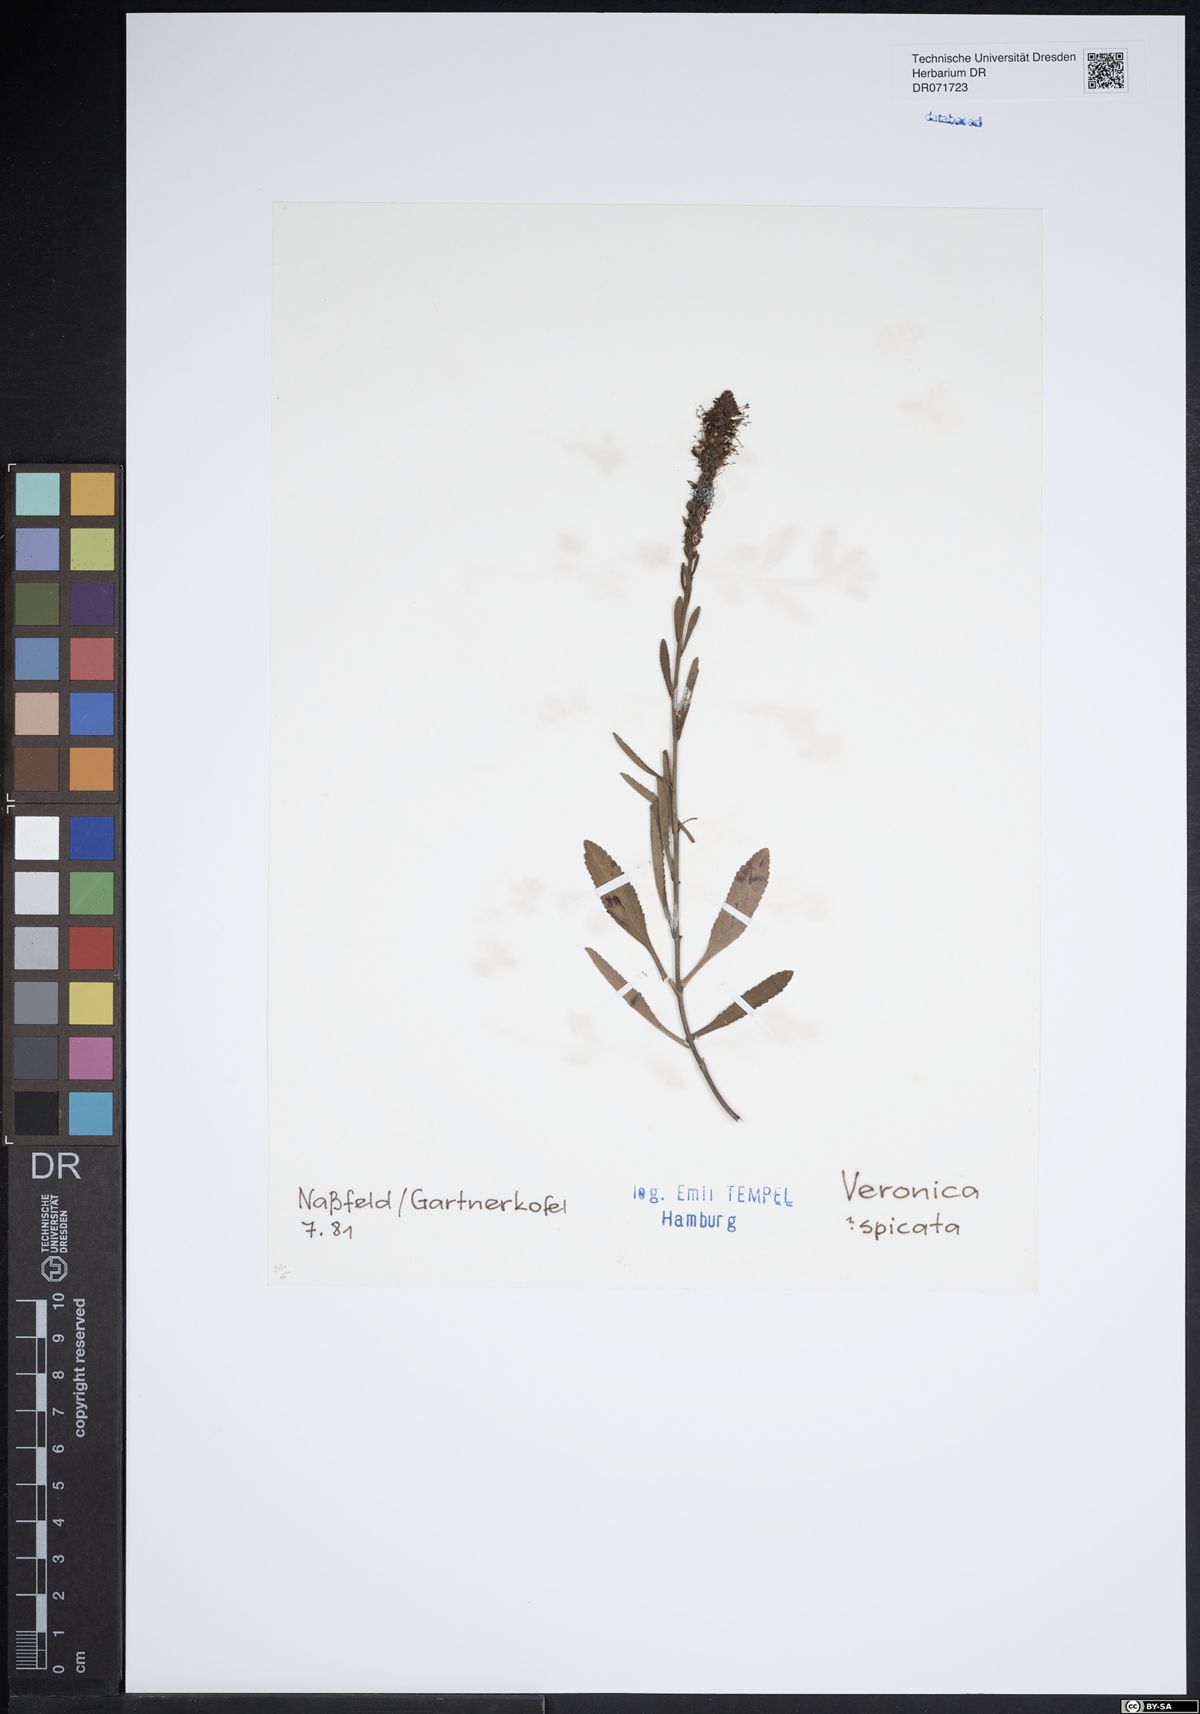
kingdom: Plantae
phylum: Tracheophyta
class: Magnoliopsida
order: Lamiales
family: Plantaginaceae
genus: Veronica
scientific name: Veronica spicata
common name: Spiked speedwell
